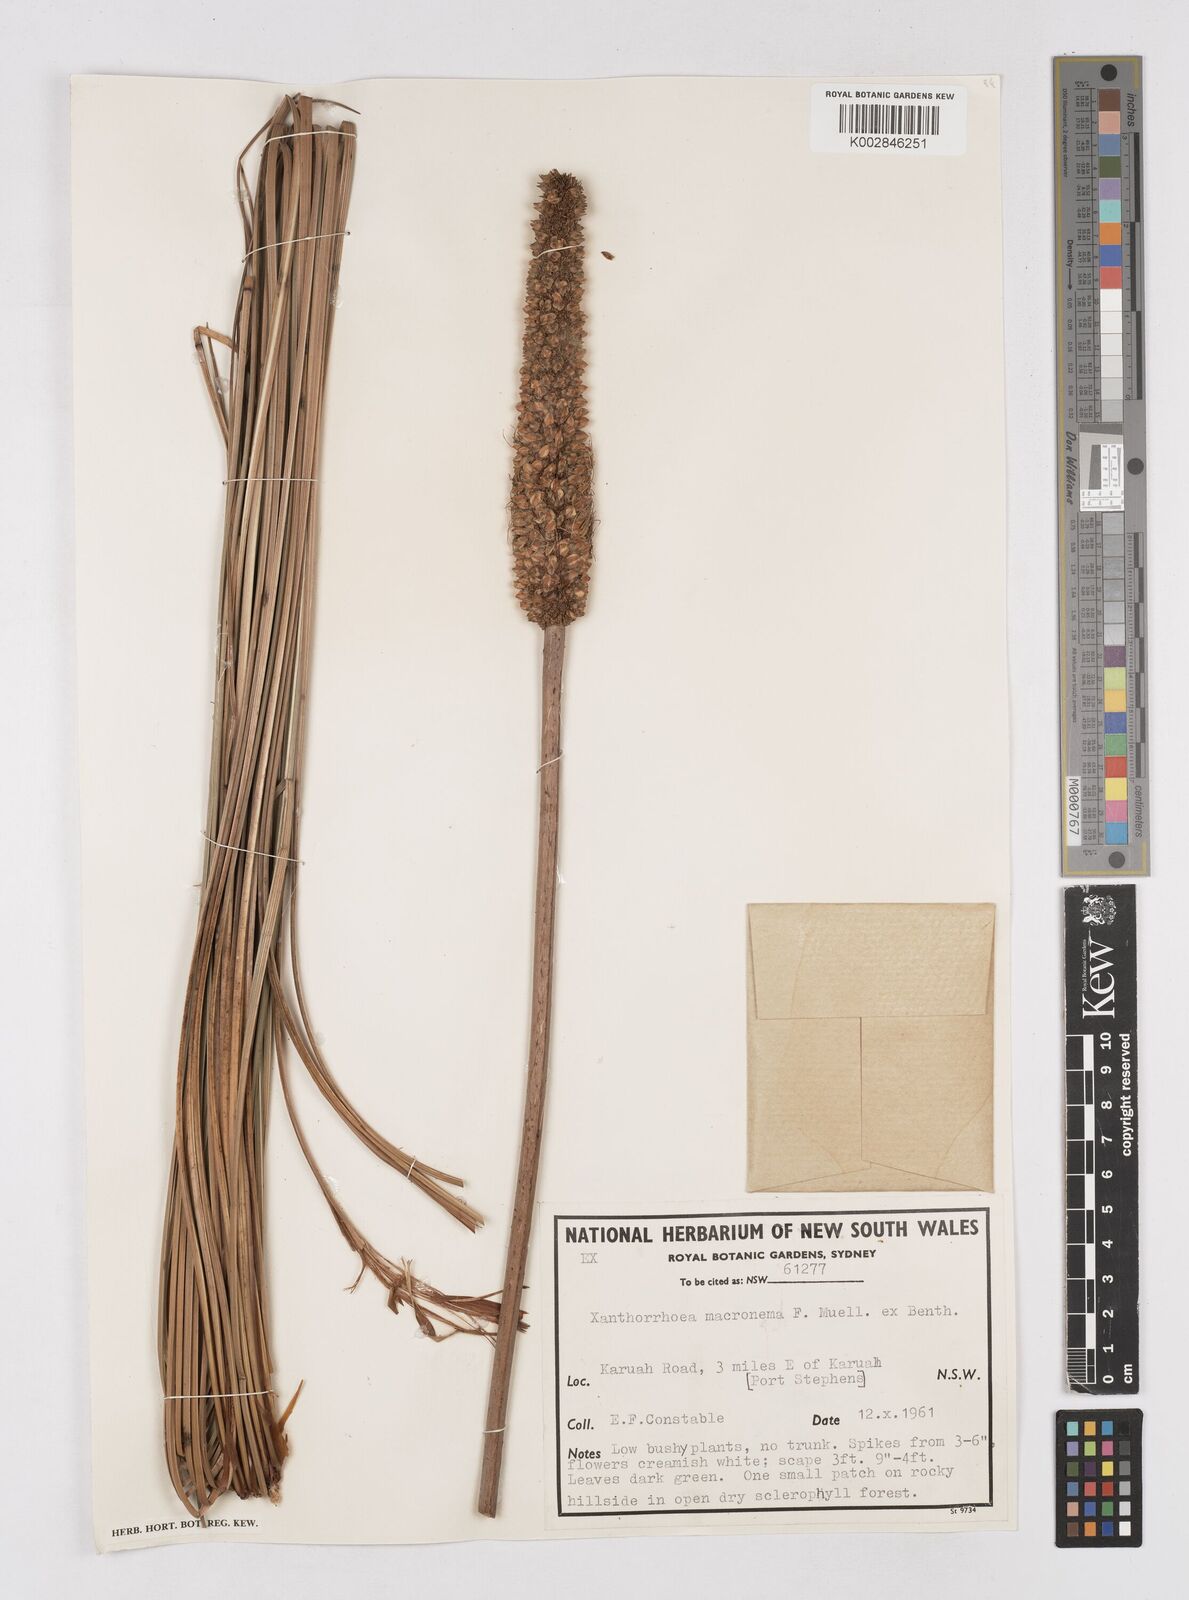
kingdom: Plantae
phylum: Tracheophyta
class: Liliopsida
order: Asparagales
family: Asphodelaceae
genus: Xanthorrhoea
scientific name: Xanthorrhoea macronema
